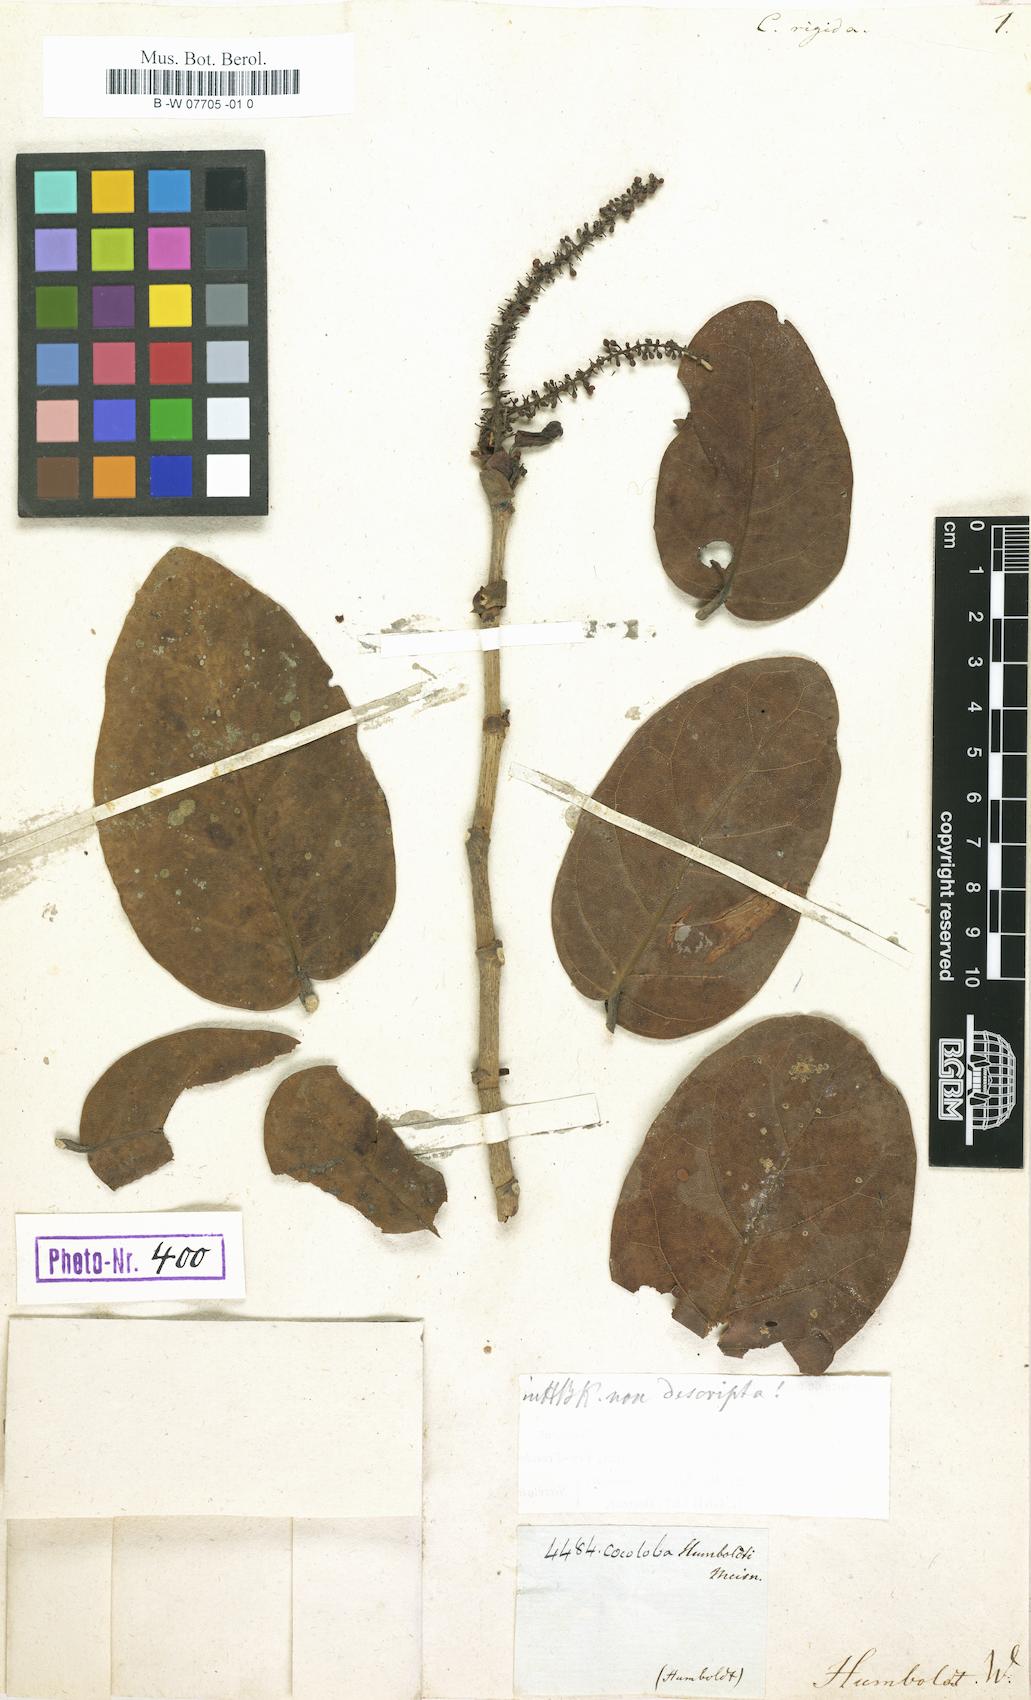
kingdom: Plantae
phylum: Tracheophyta
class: Magnoliopsida
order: Caryophyllales
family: Polygonaceae
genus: Coccoloba
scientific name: Coccoloba rigida
